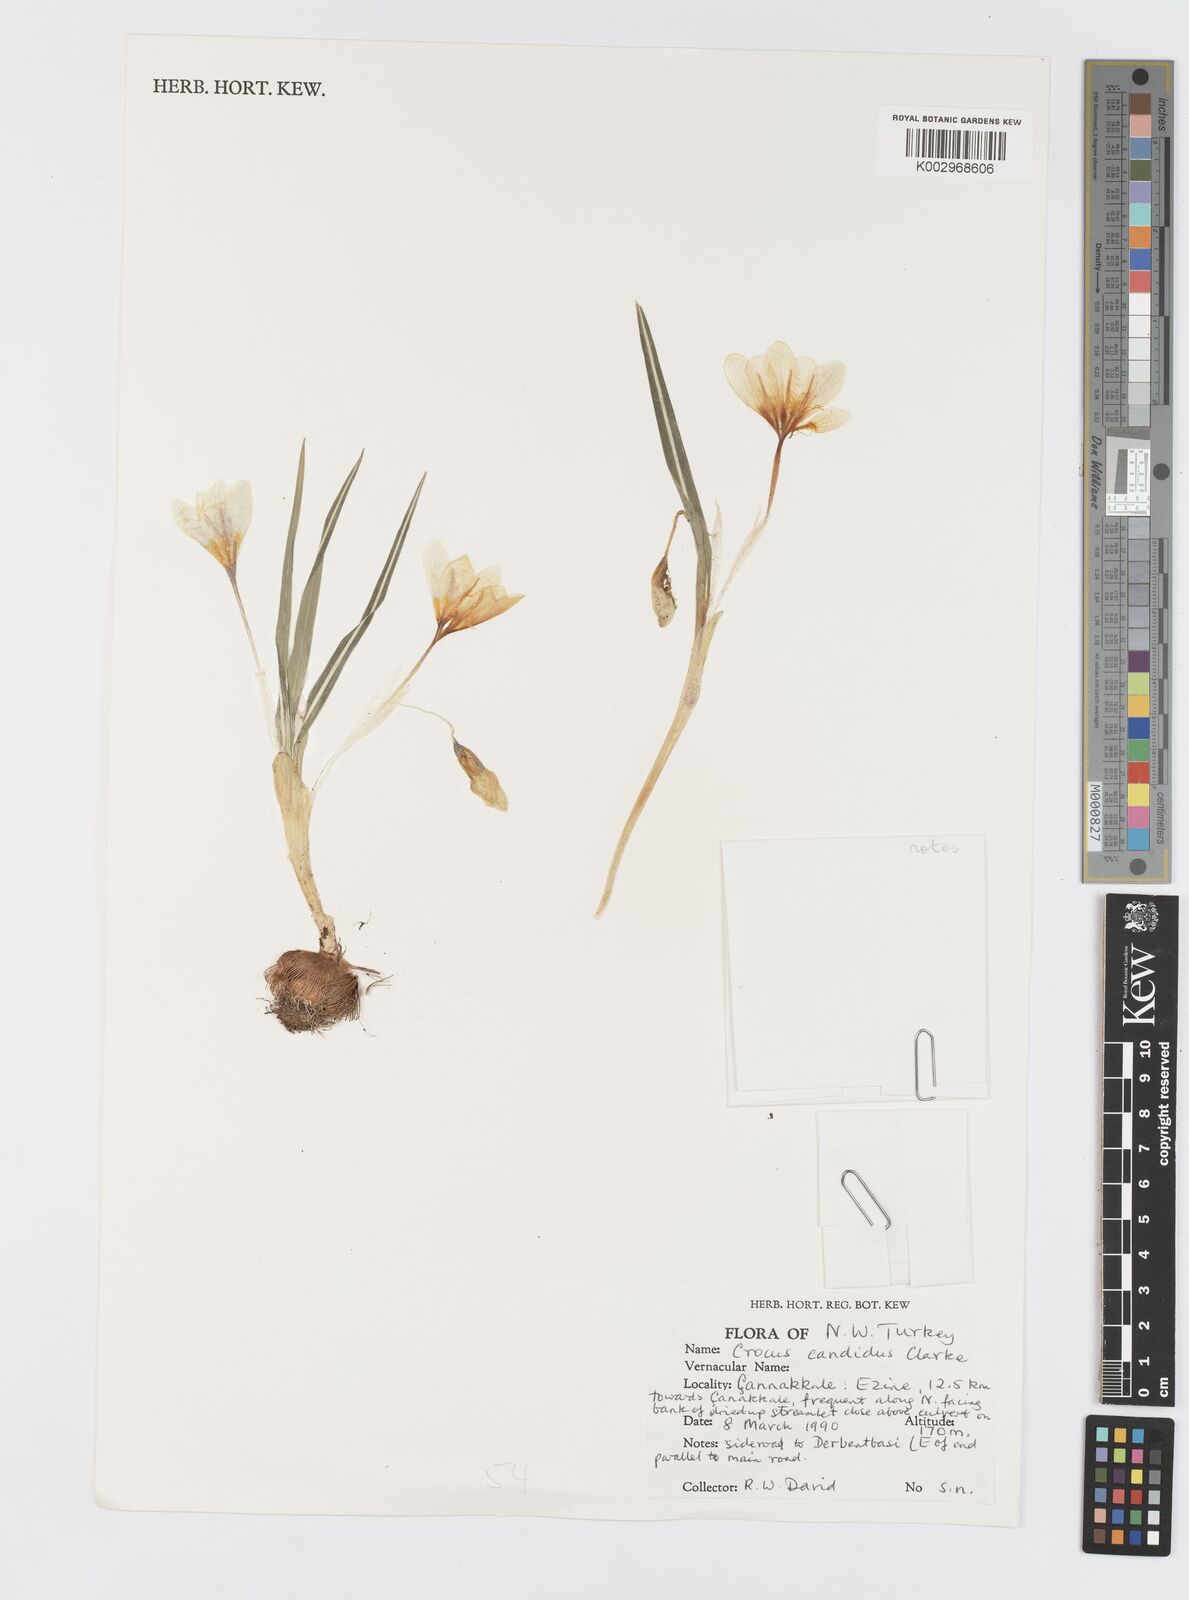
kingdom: Plantae
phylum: Tracheophyta
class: Liliopsida
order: Asparagales
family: Iridaceae
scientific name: Iridaceae
